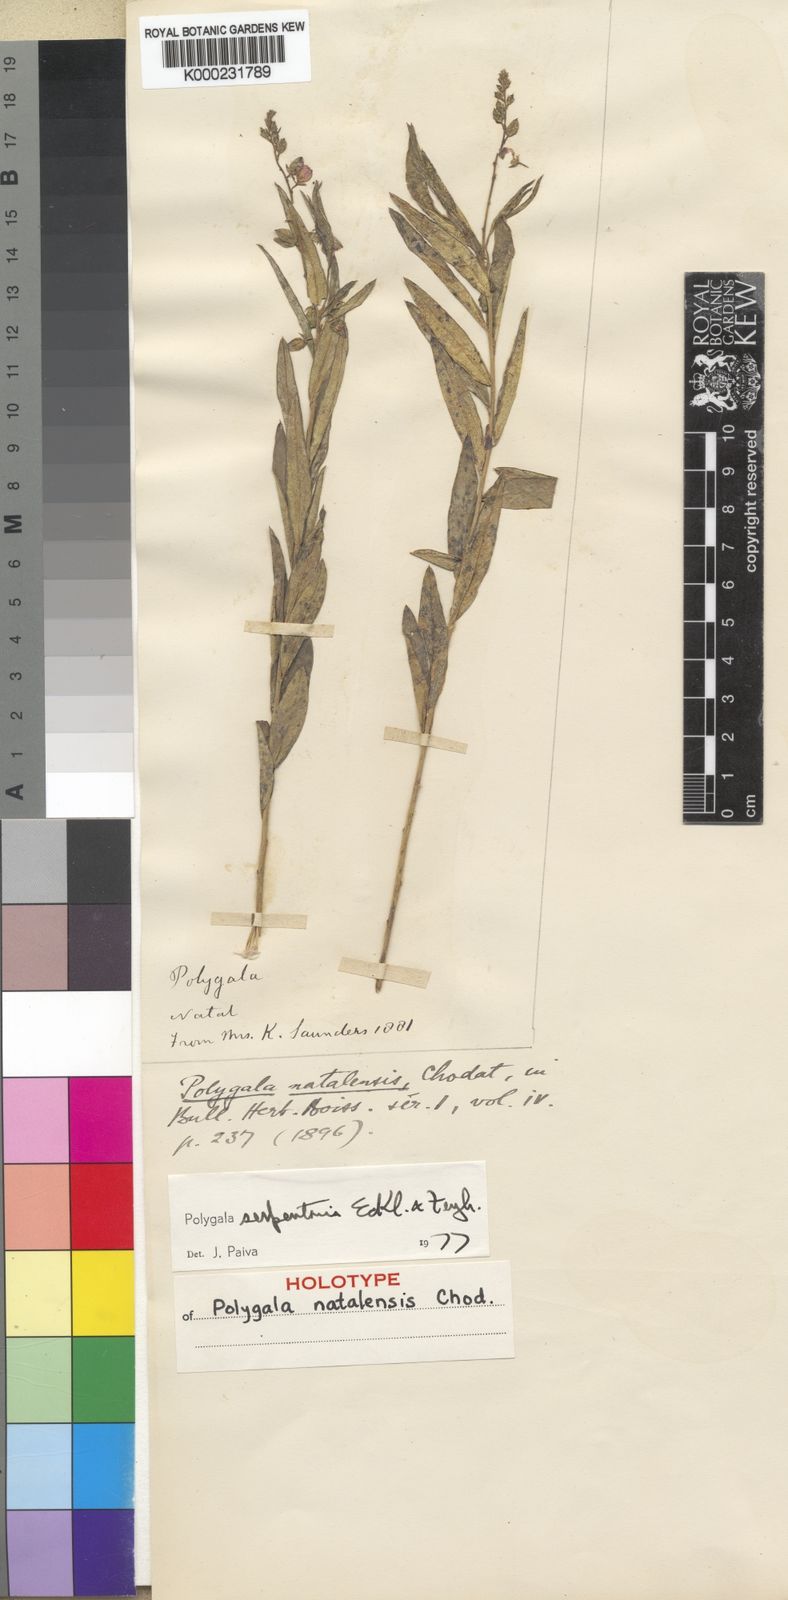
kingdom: Plantae
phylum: Tracheophyta
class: Magnoliopsida
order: Fabales
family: Polygalaceae
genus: Polygala
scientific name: Polygala serpentaria
